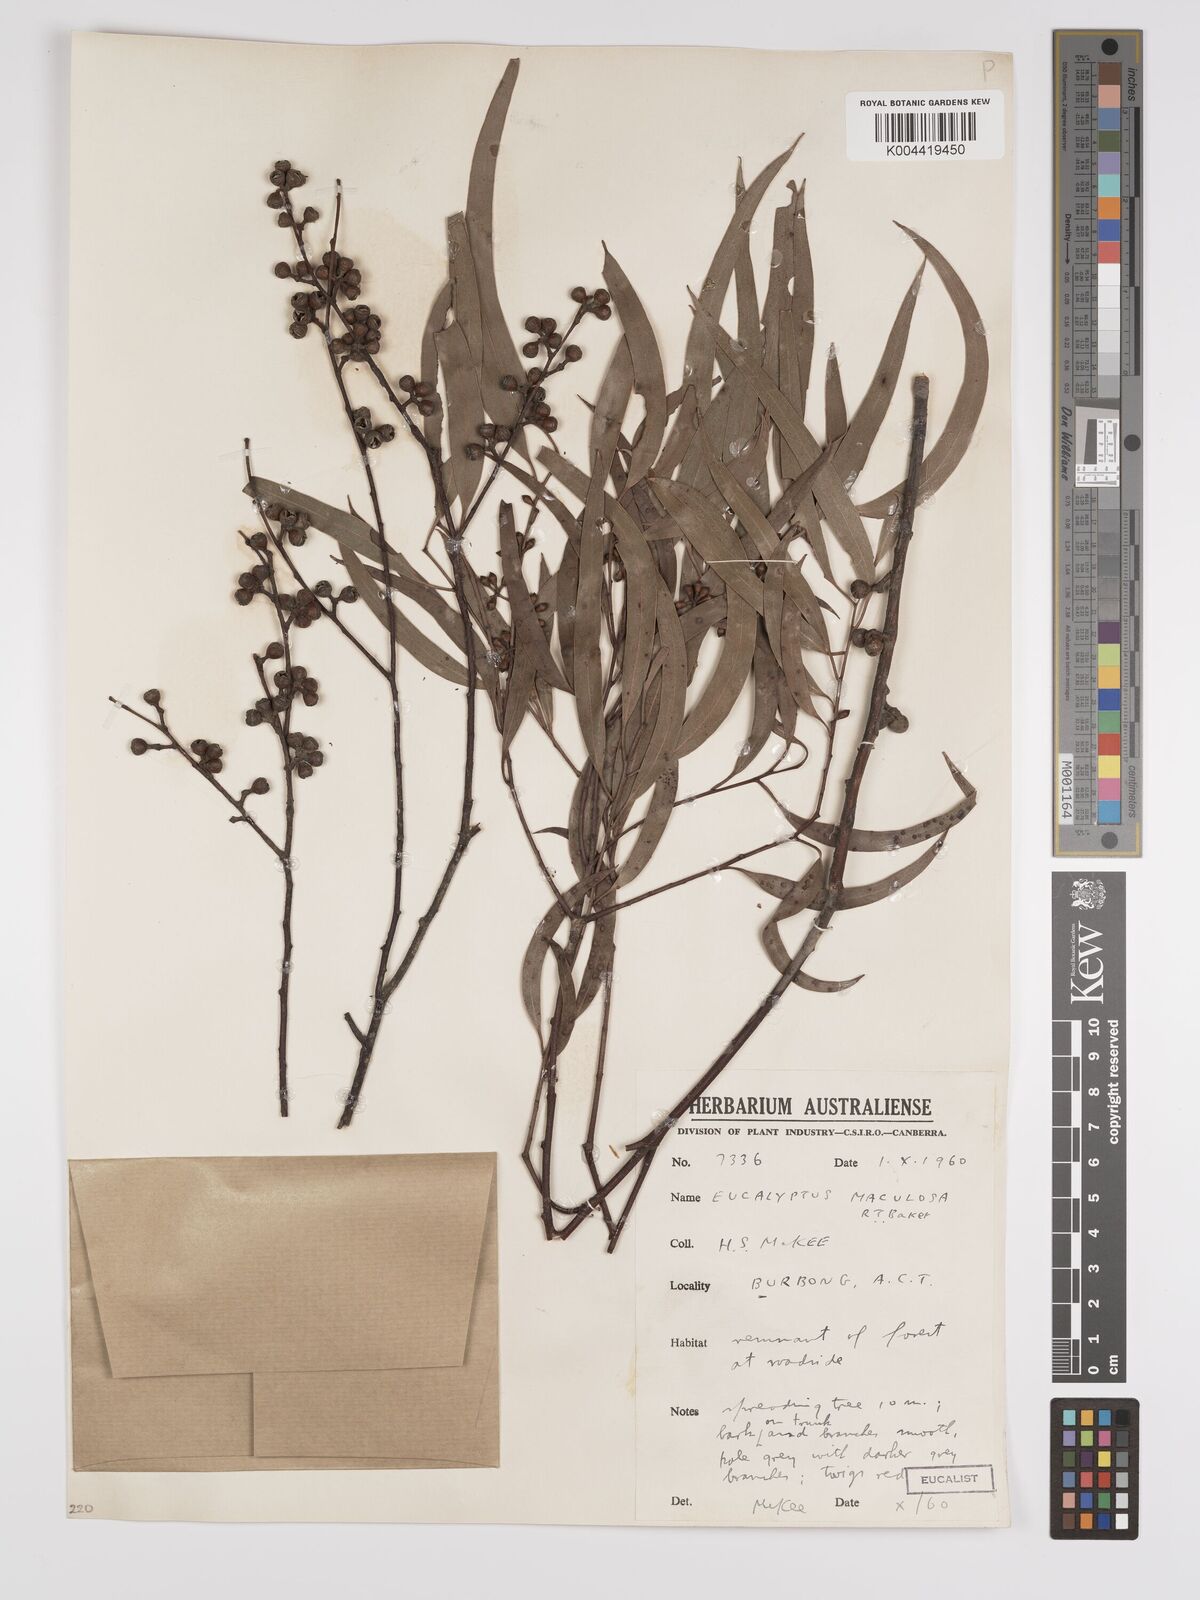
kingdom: Plantae
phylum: Tracheophyta
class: Magnoliopsida
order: Myrtales
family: Myrtaceae
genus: Eucalyptus
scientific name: Eucalyptus mannifera
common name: Manna gum
